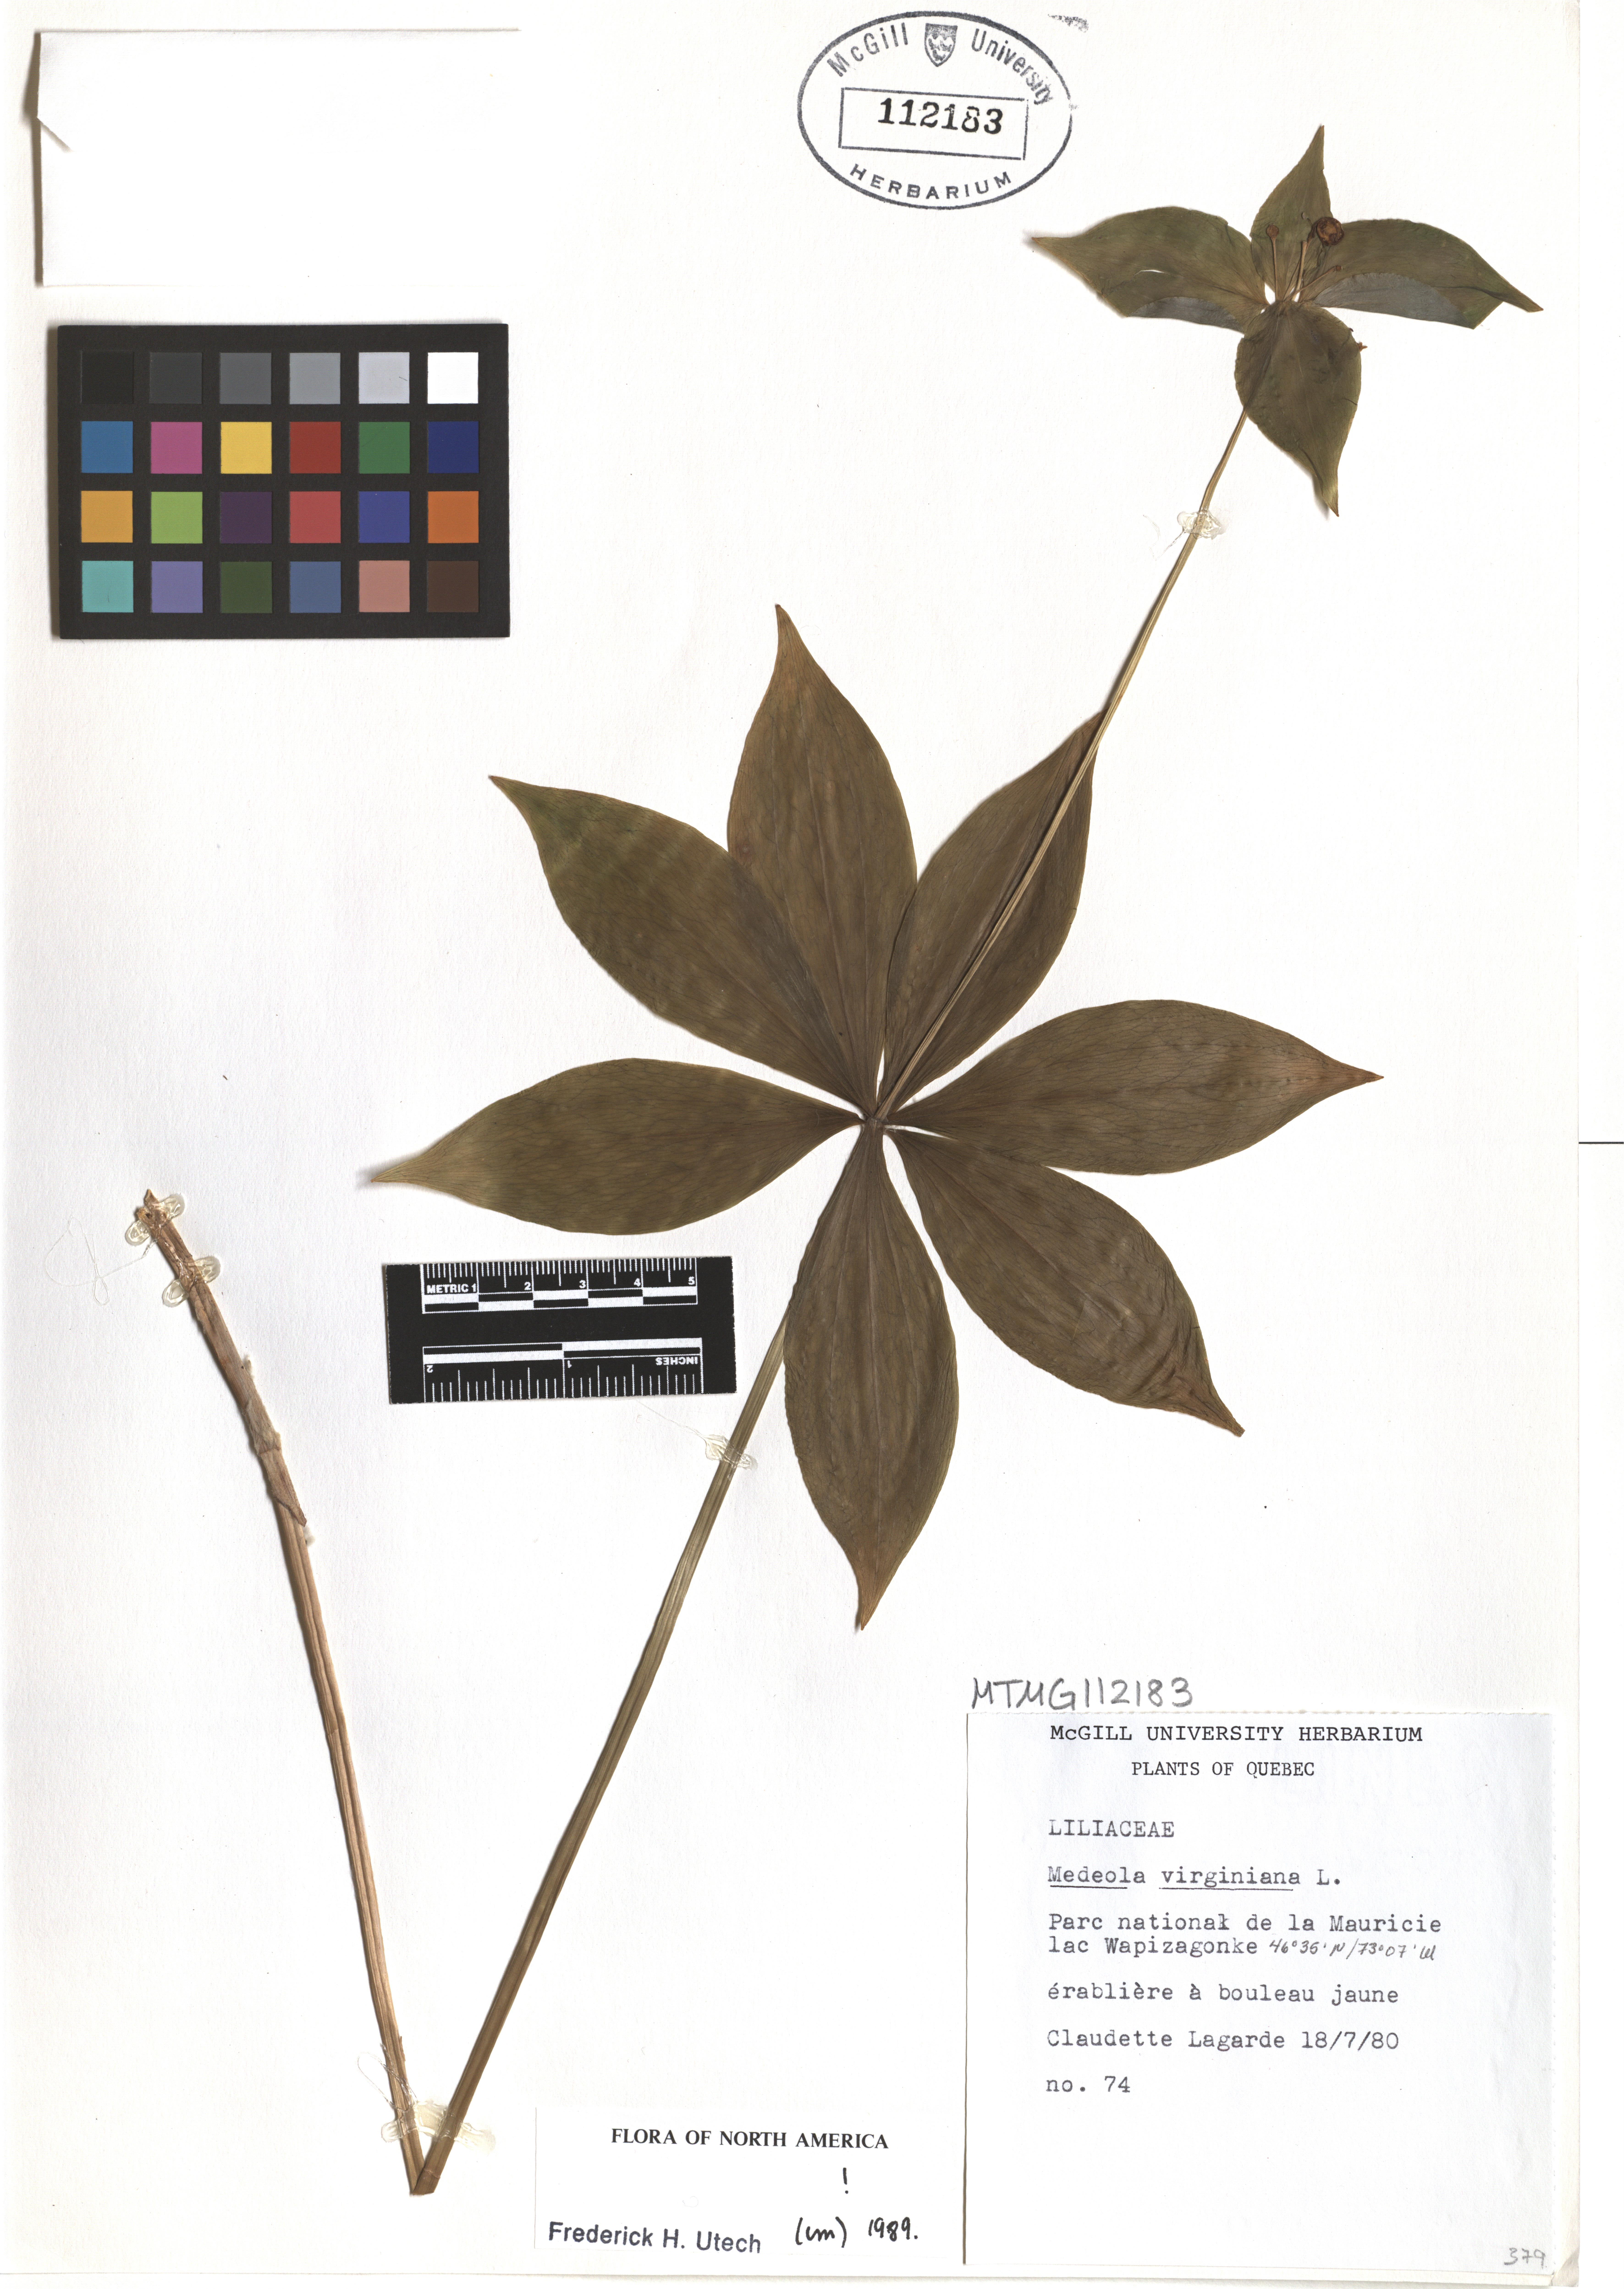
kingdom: Plantae
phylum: Tracheophyta
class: Liliopsida
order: Liliales
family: Liliaceae
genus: Medeola
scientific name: Medeola virginiana
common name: Indian cucumber-root
